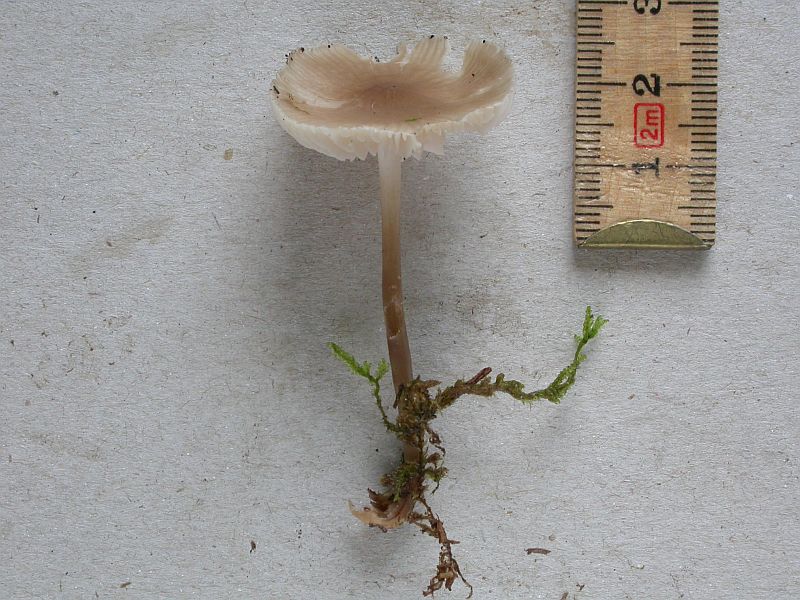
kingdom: Fungi
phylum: Basidiomycota
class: Agaricomycetes
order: Agaricales
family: Mycenaceae
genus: Mycena
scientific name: Mycena galericulata
